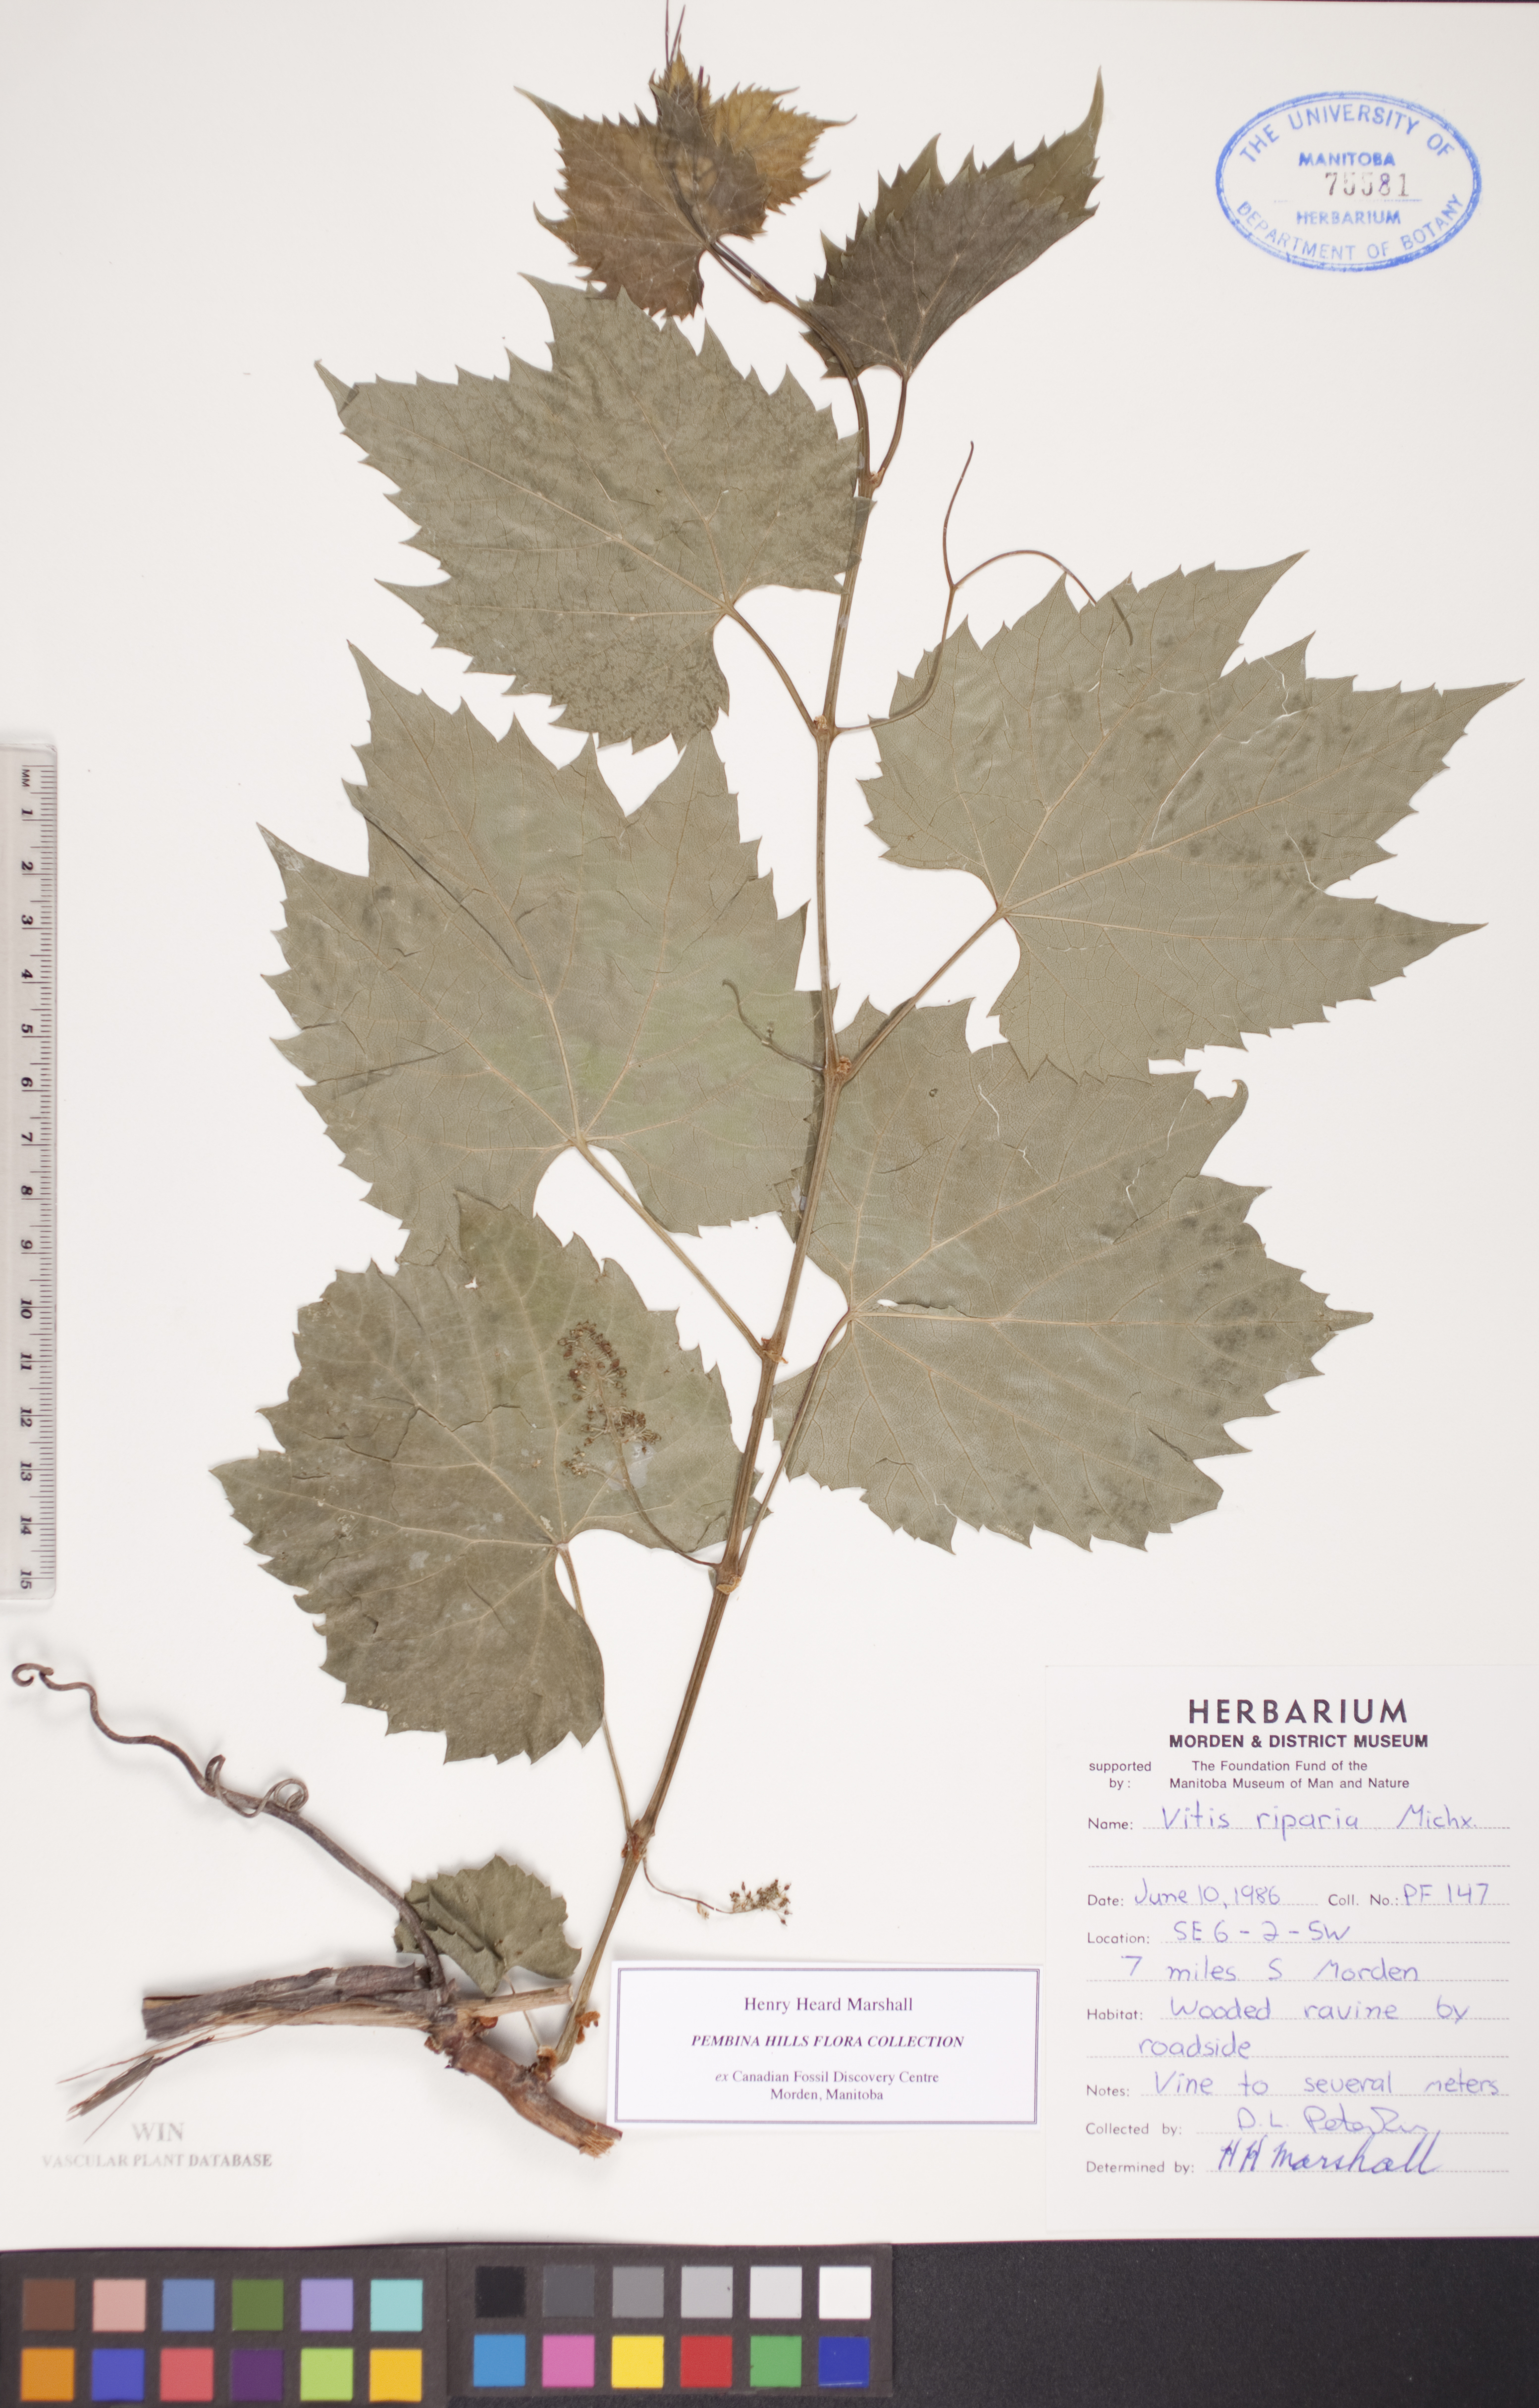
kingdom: Plantae
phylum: Tracheophyta
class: Magnoliopsida
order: Vitales
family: Vitaceae
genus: Vitis
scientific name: Vitis riparia
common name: Frost grape
